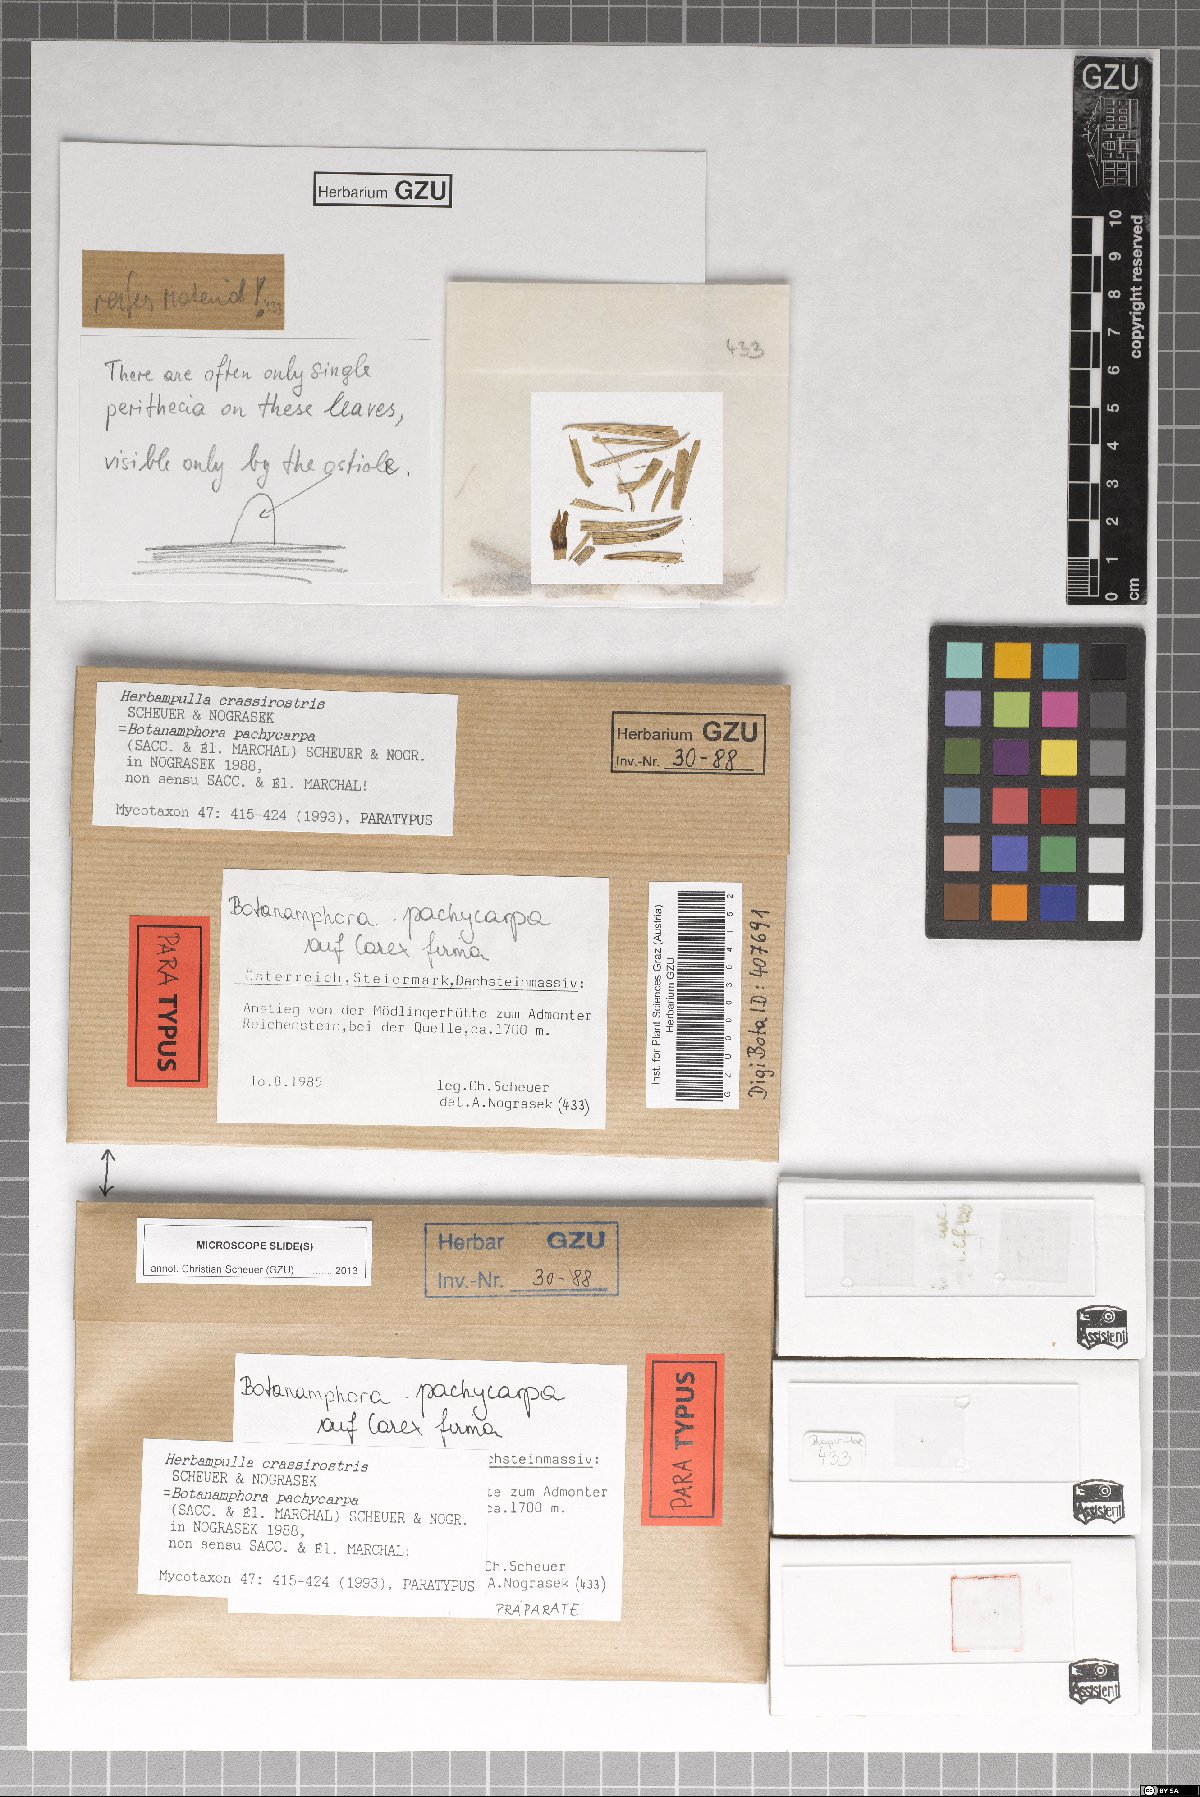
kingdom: Fungi
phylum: Ascomycota
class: Sordariomycetes
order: Magnaporthales
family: Magnaporthaceae
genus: Herbampulla
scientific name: Herbampulla crassirostris
